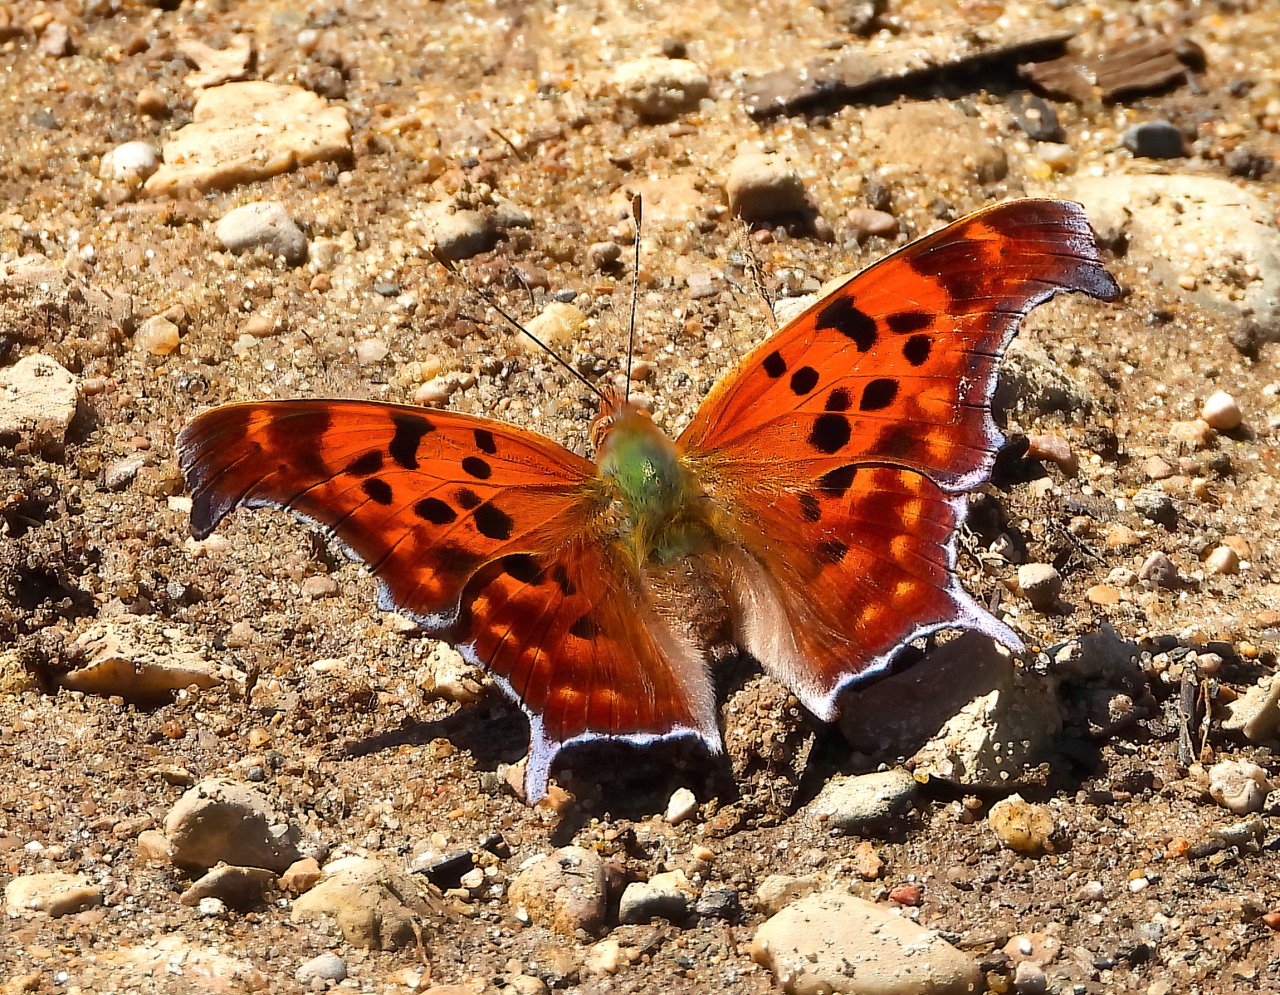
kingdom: Animalia
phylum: Arthropoda
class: Insecta
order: Lepidoptera
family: Nymphalidae
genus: Polygonia
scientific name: Polygonia interrogationis
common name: Question Mark
